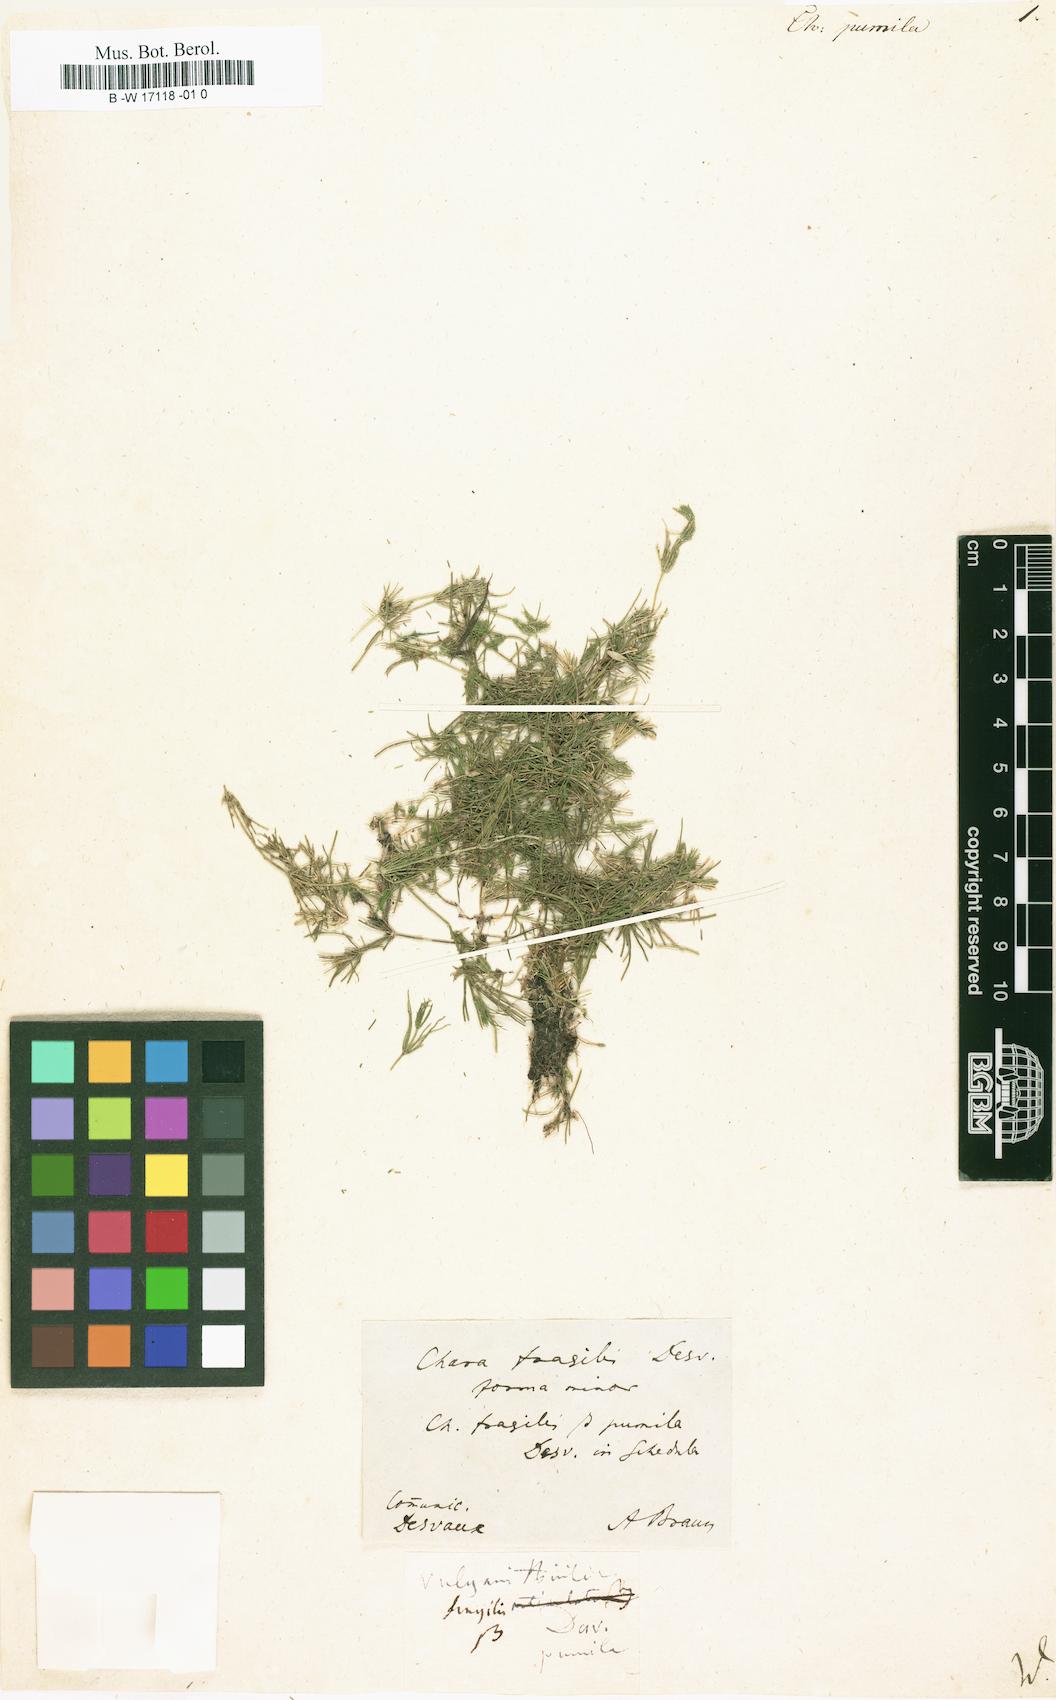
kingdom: Plantae
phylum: Charophyta
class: Charophyceae
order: Charales
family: Characeae
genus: Chara
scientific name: Chara aspera
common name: Rough stonewort
